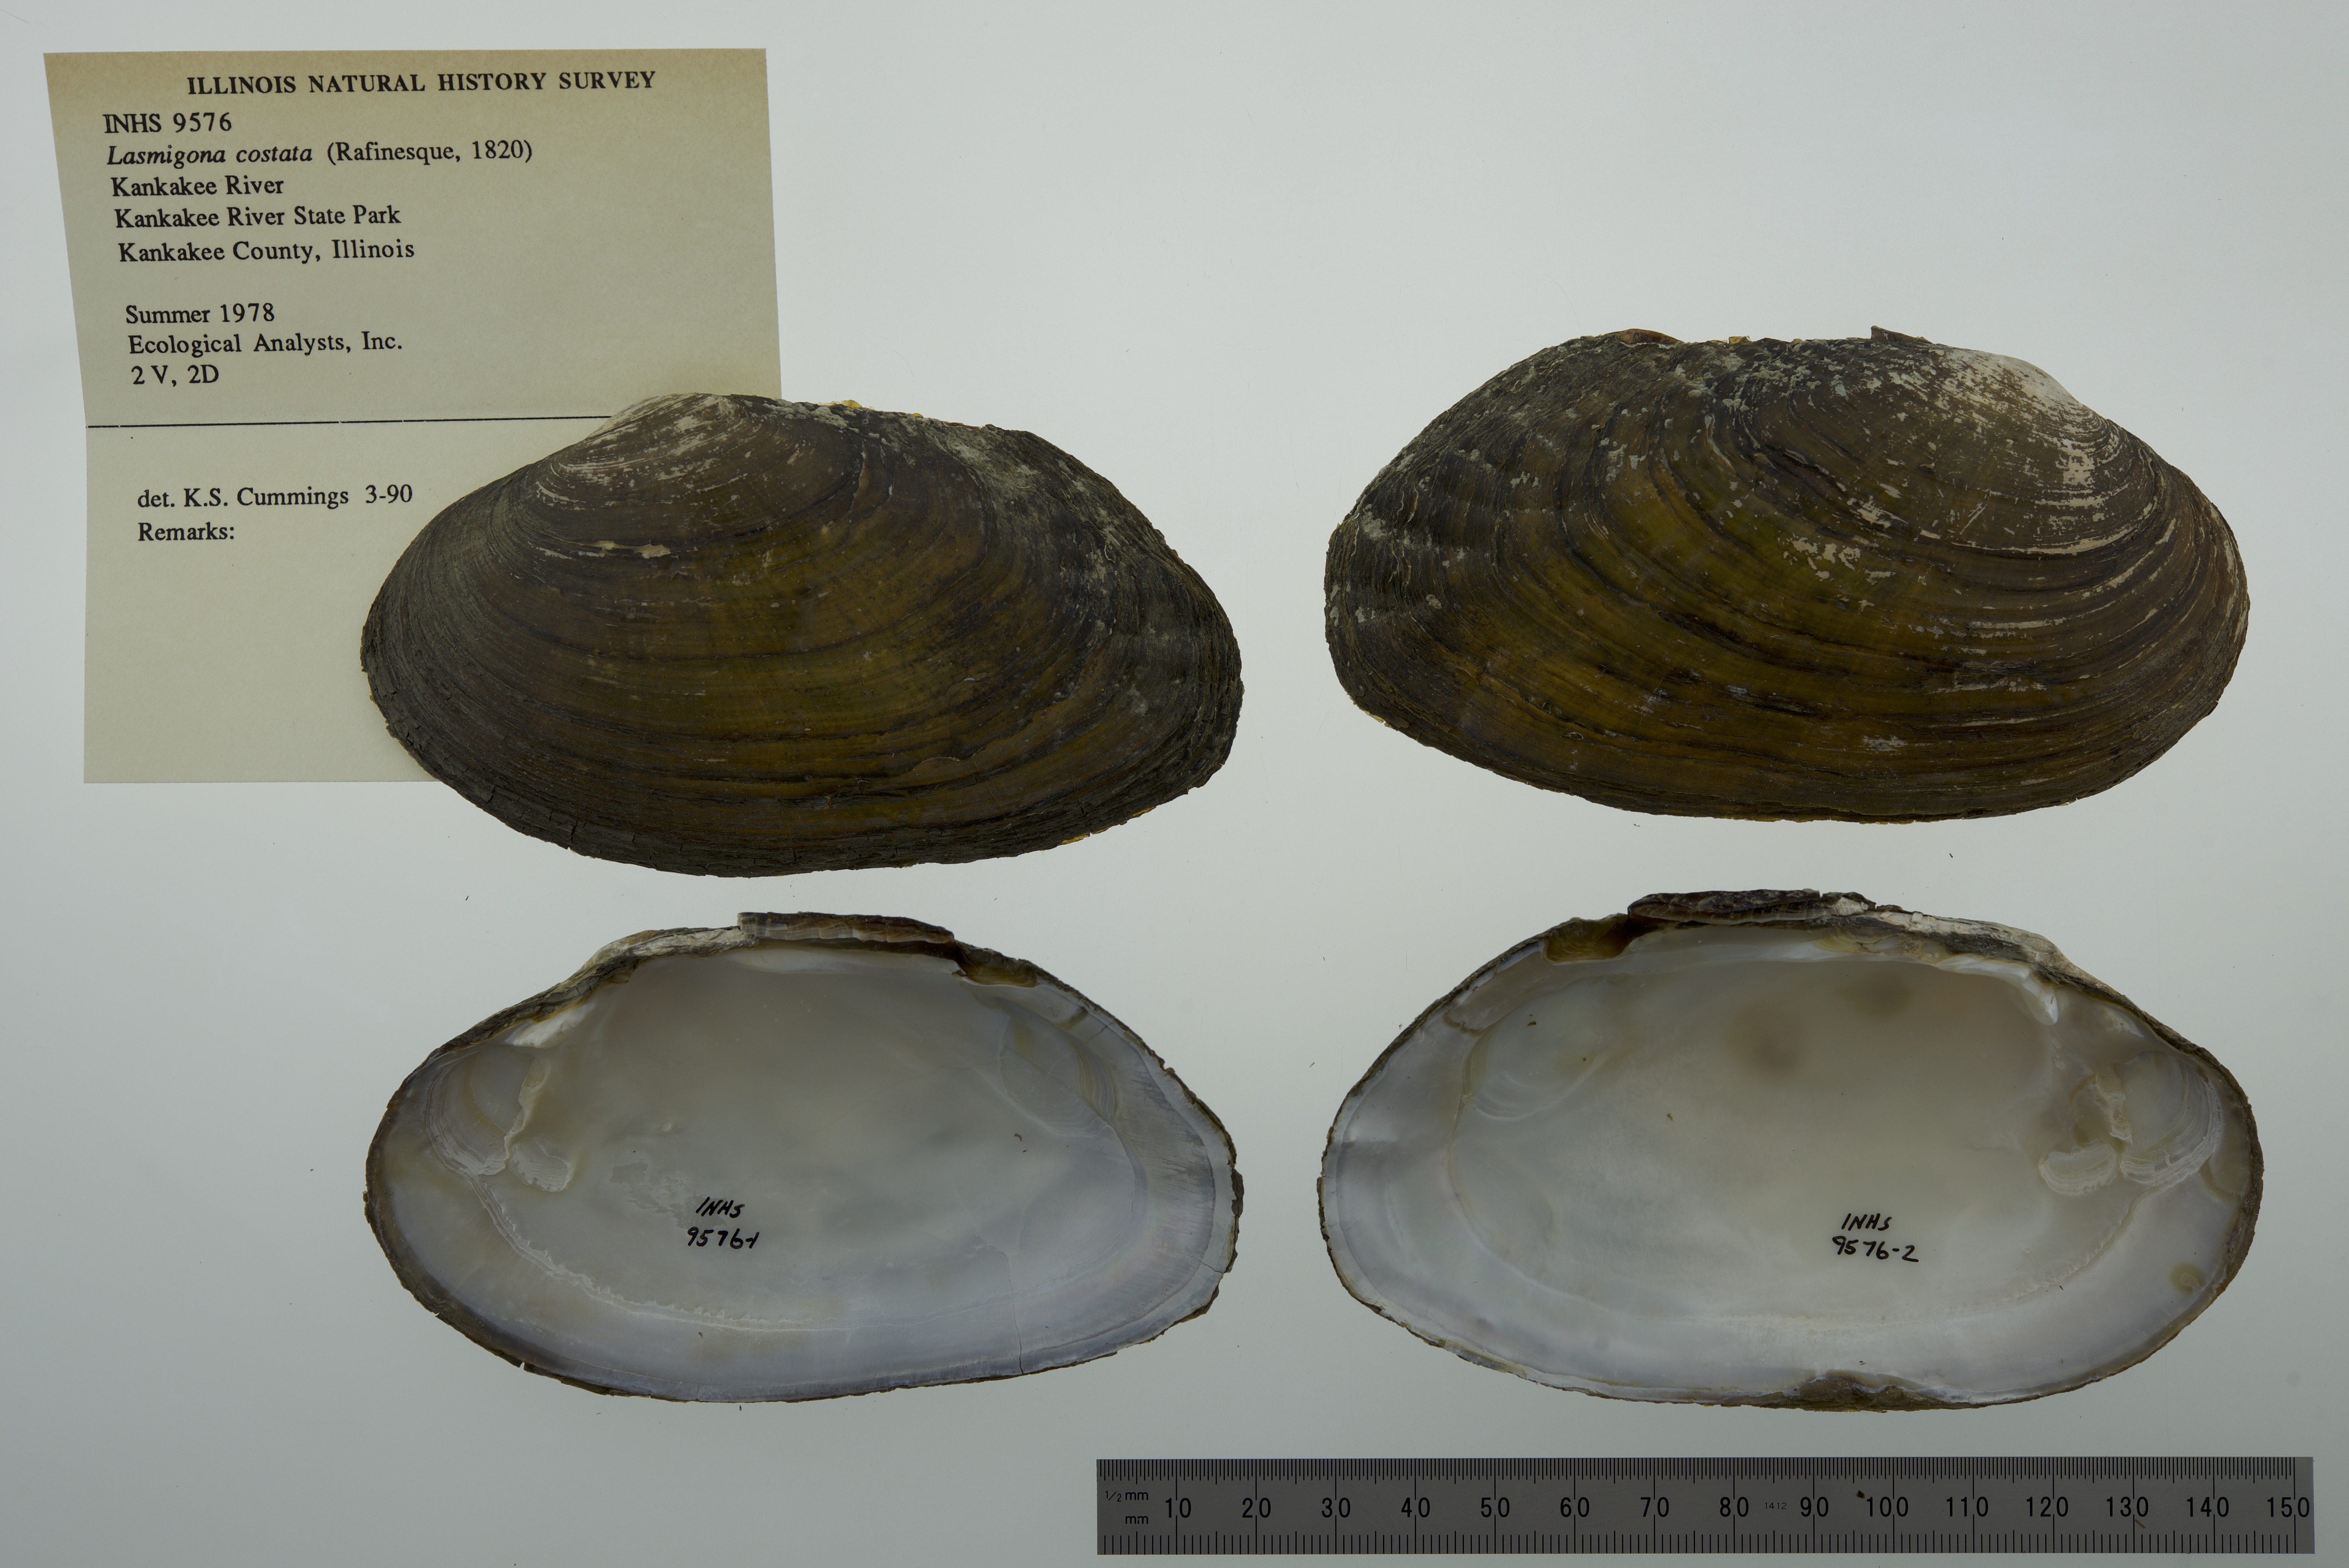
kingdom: Animalia
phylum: Mollusca
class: Bivalvia
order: Unionida
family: Unionidae
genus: Lasmigona
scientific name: Lasmigona costata
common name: Flutedshell
